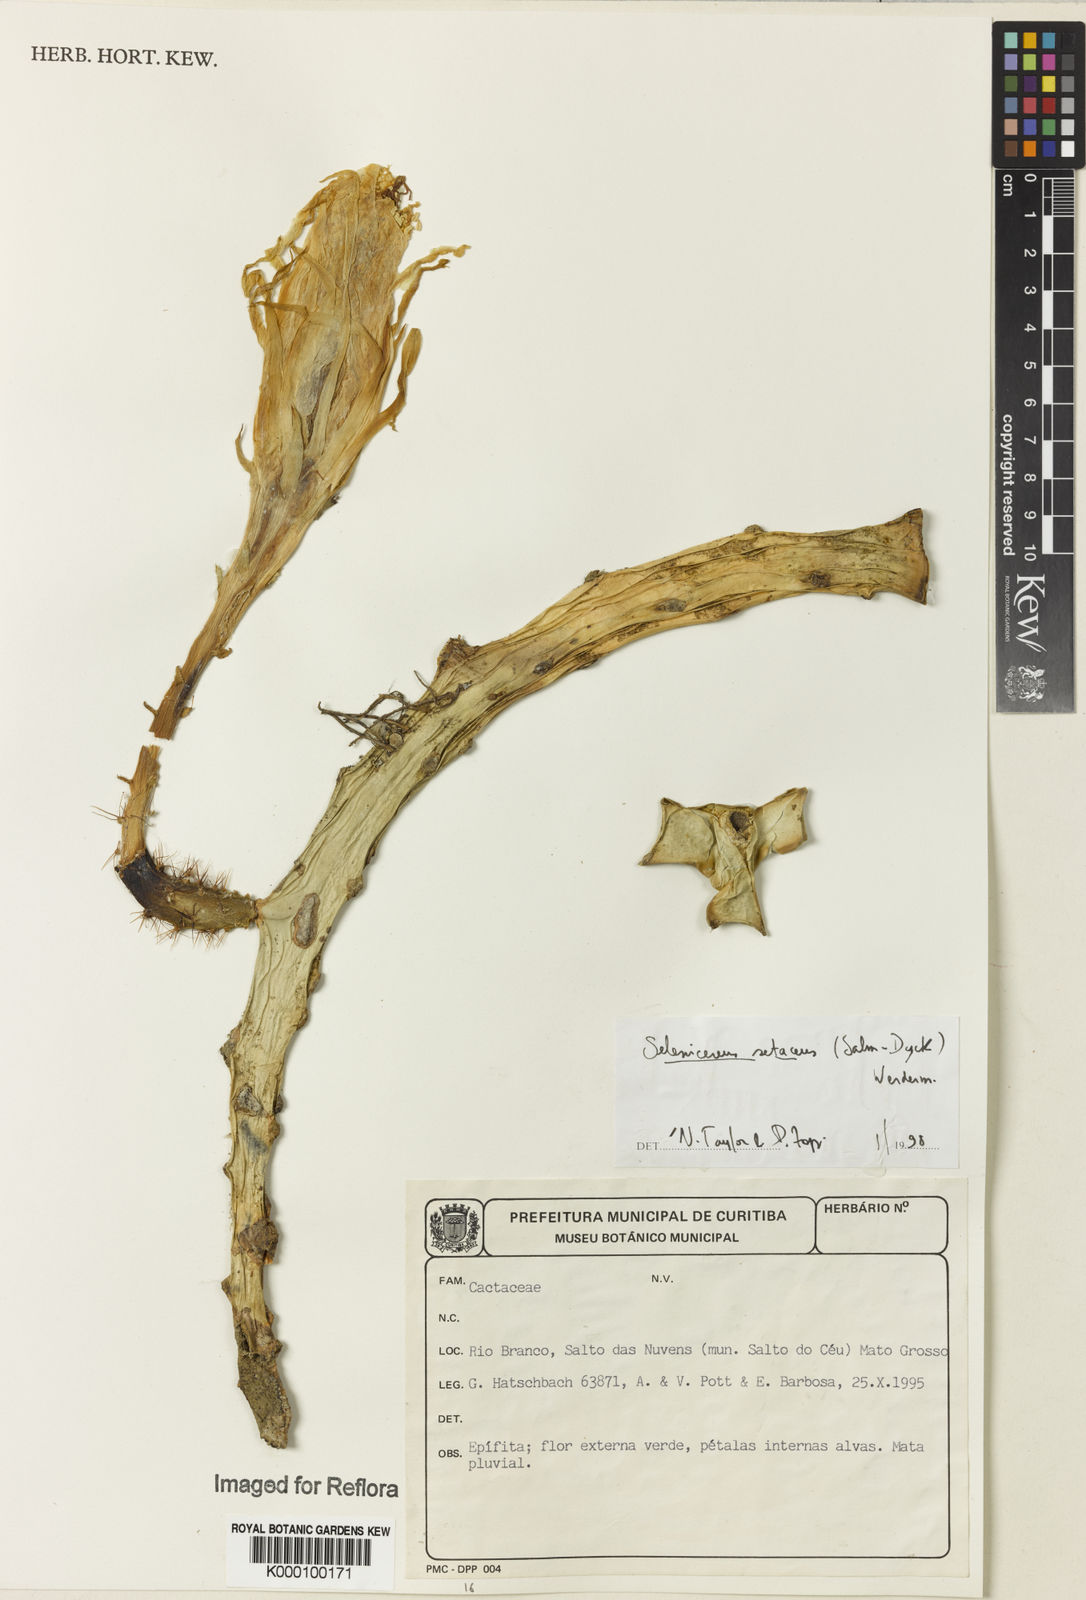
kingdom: Plantae
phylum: Tracheophyta
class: Magnoliopsida
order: Caryophyllales
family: Cactaceae
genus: Selenicereus
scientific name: Selenicereus
